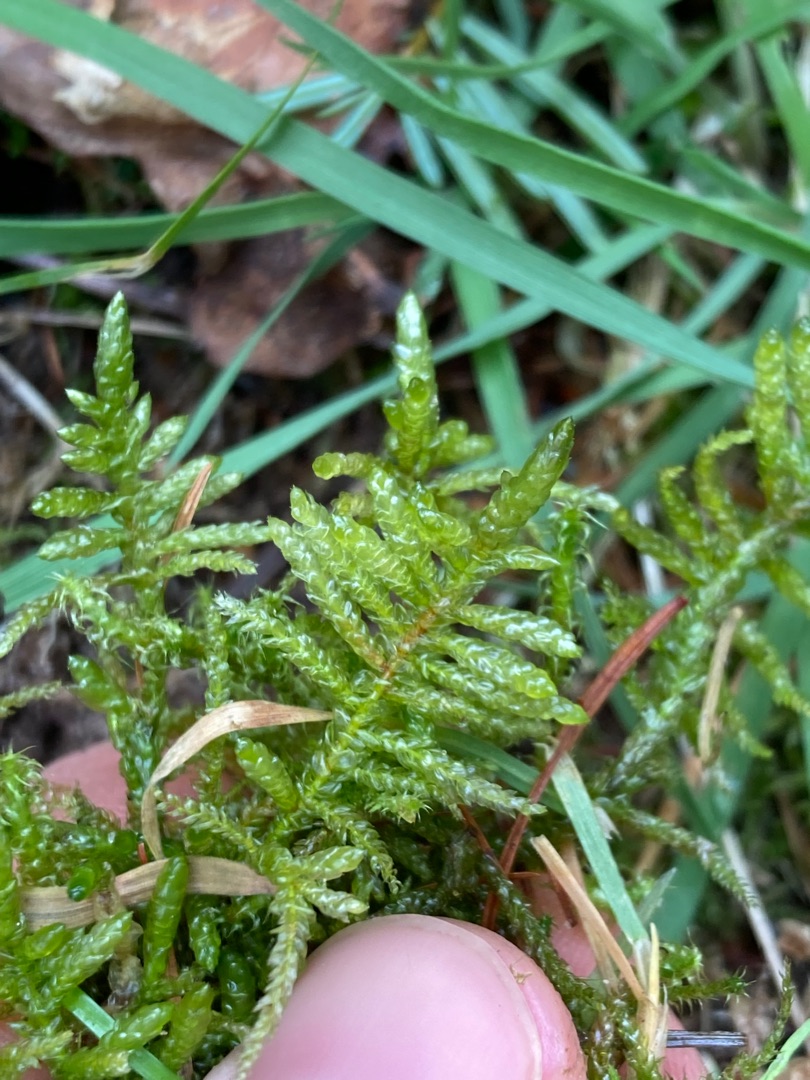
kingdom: Plantae
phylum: Bryophyta
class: Bryopsida
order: Hypnales
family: Brachytheciaceae
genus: Pseudoscleropodium
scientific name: Pseudoscleropodium purum
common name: Hulbladet fedtmos
